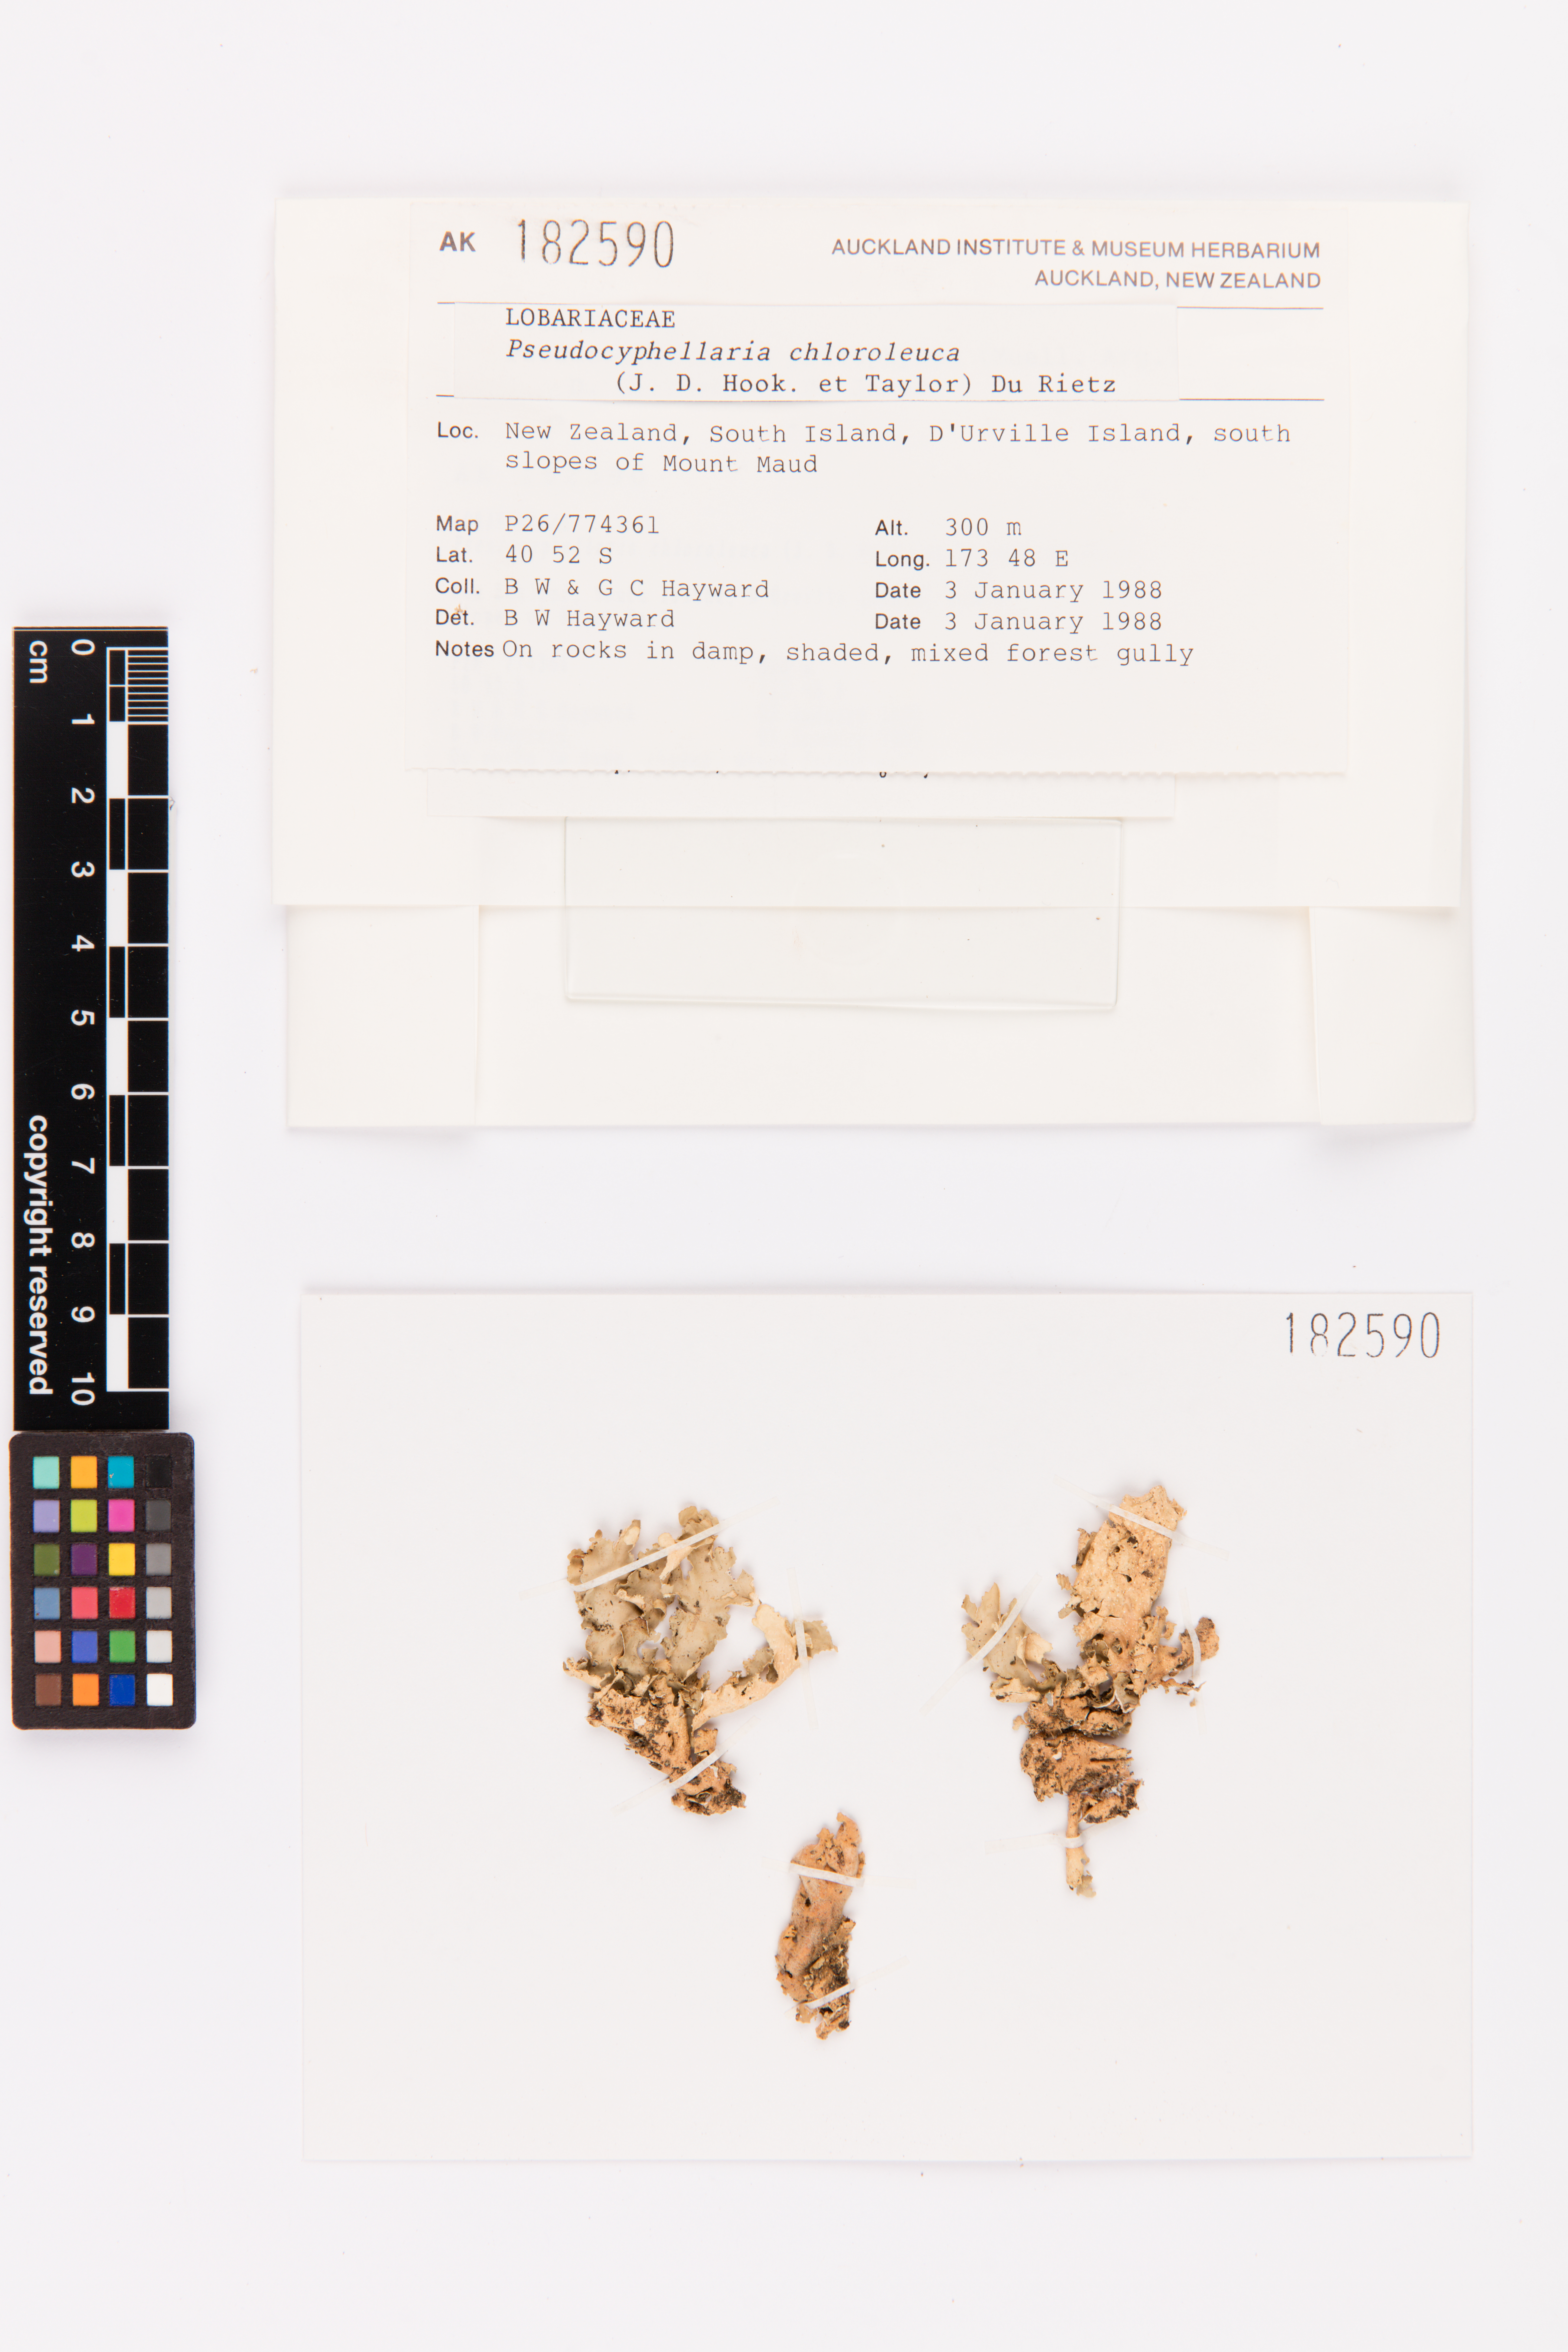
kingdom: Fungi
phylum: Ascomycota
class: Lecanoromycetes
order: Peltigerales
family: Lobariaceae
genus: Pseudocyphellaria
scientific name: Pseudocyphellaria chloroleuca
